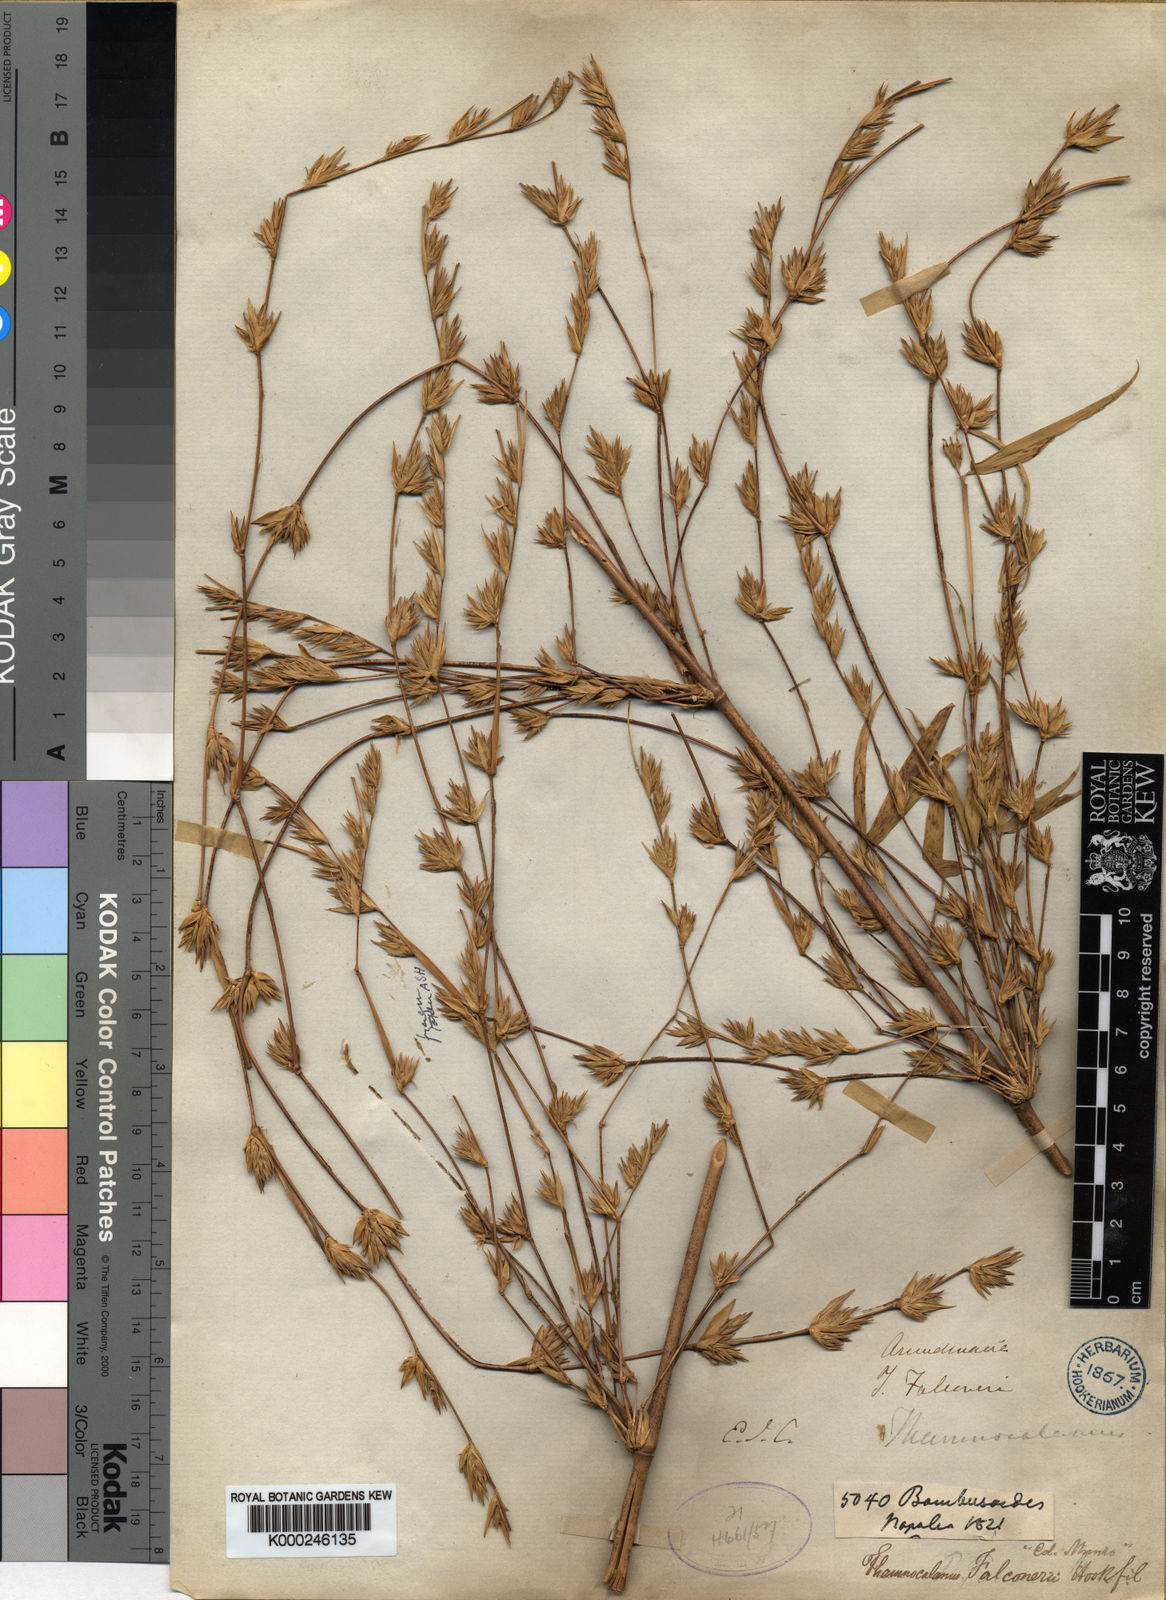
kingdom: Plantae
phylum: Tracheophyta
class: Liliopsida
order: Poales
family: Poaceae
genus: Himalayacalamus
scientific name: Himalayacalamus falconeri
